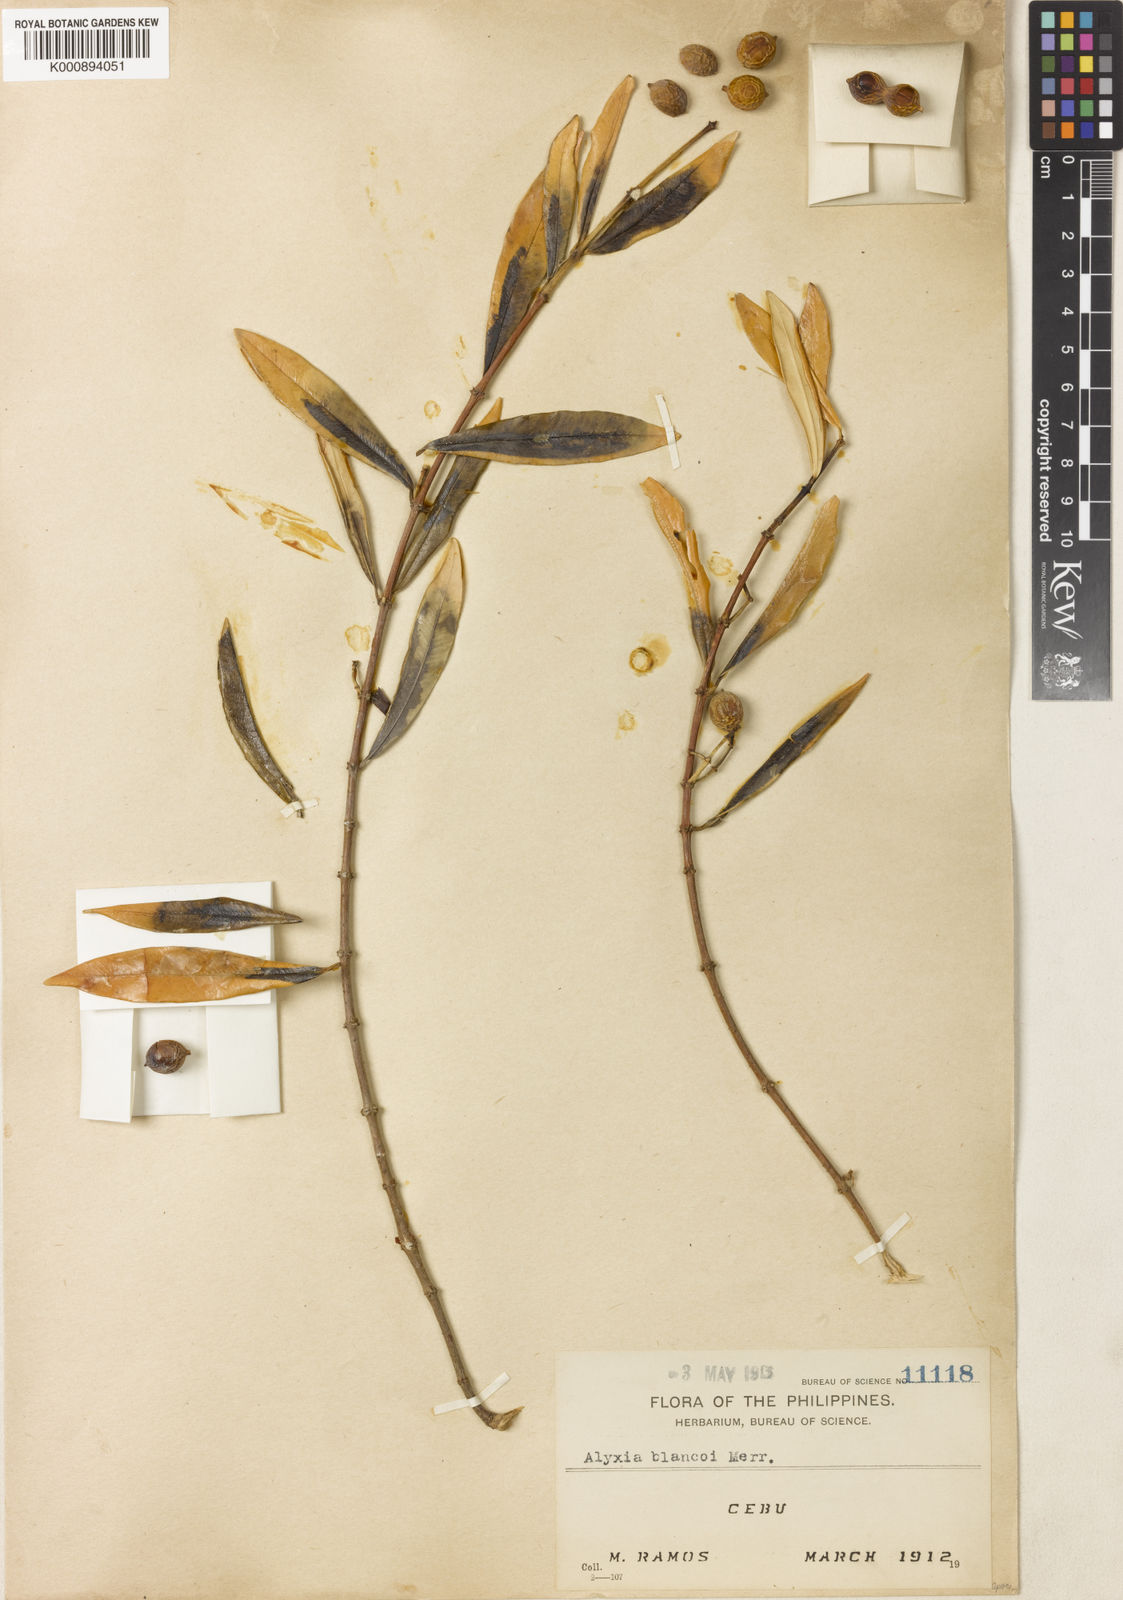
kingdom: Plantae
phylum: Tracheophyta
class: Magnoliopsida
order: Gentianales
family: Apocynaceae
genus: Alyxia
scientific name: Alyxia luzoniensis
